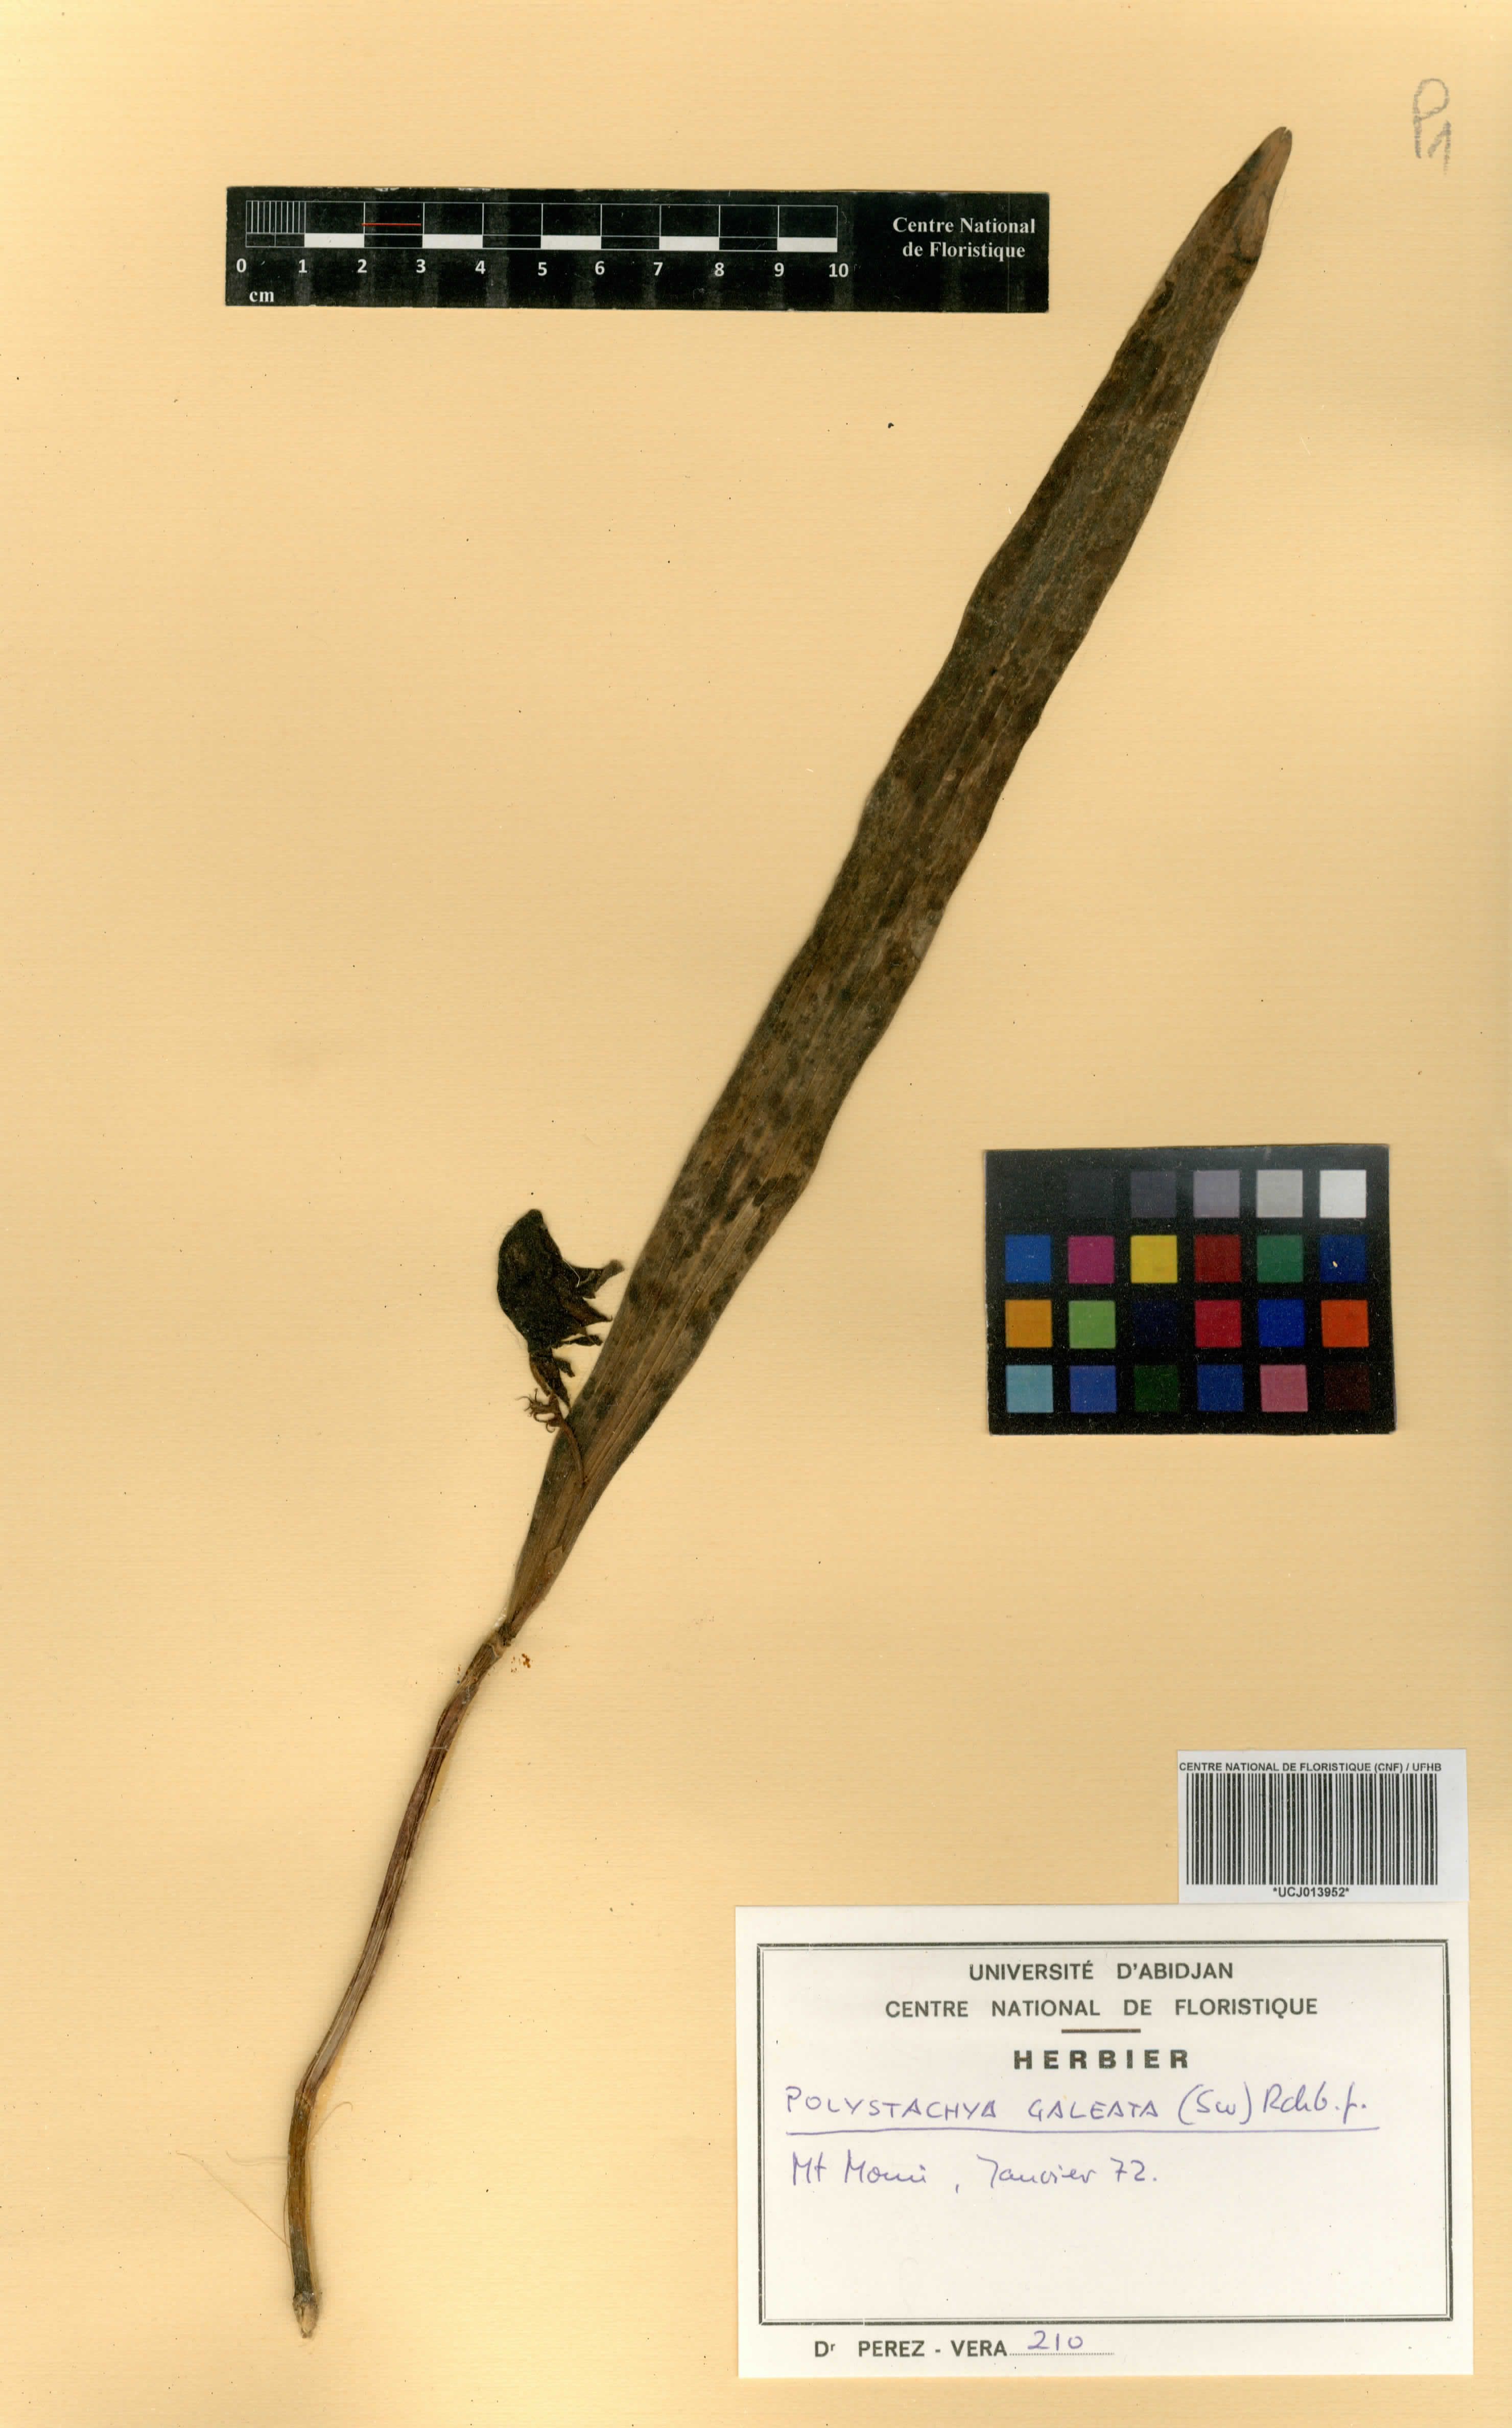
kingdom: Plantae
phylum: Tracheophyta
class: Liliopsida
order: Asparagales
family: Orchidaceae
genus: Polystachya
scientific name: Polystachya galeata
